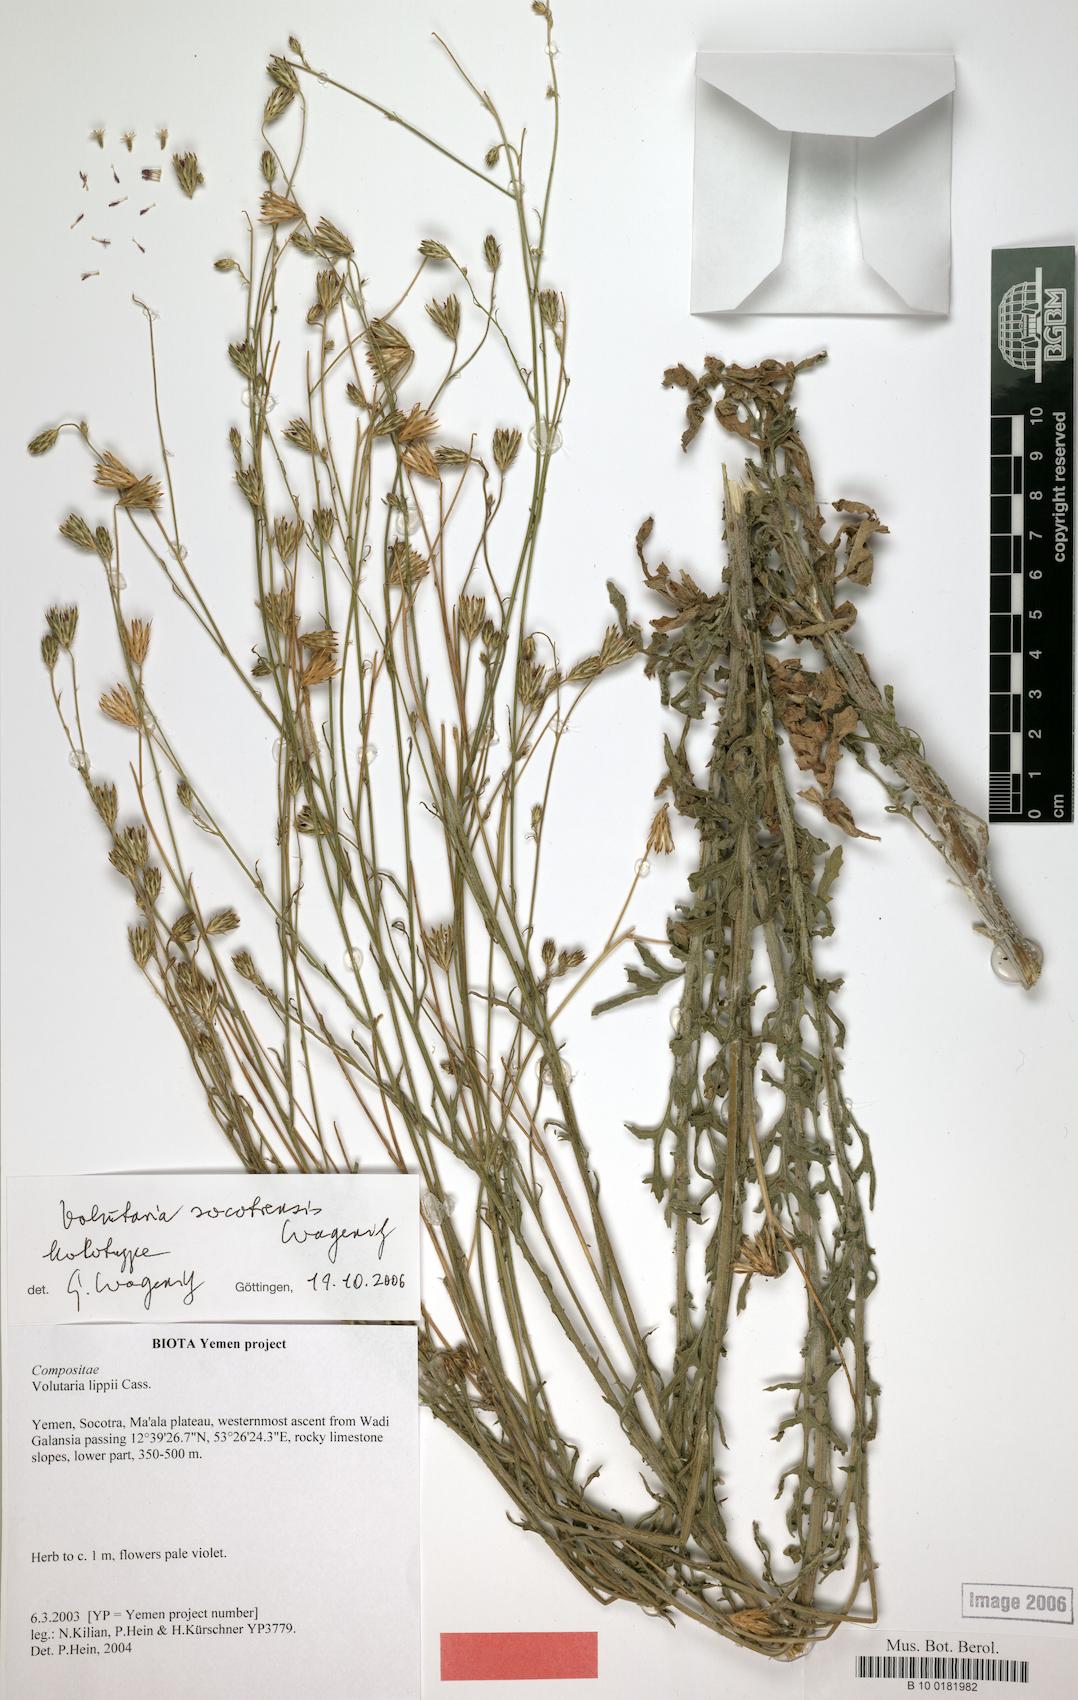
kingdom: Plantae
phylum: Tracheophyta
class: Magnoliopsida
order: Asterales
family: Asteraceae
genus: Volutaria
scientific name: Volutaria socotrensis
